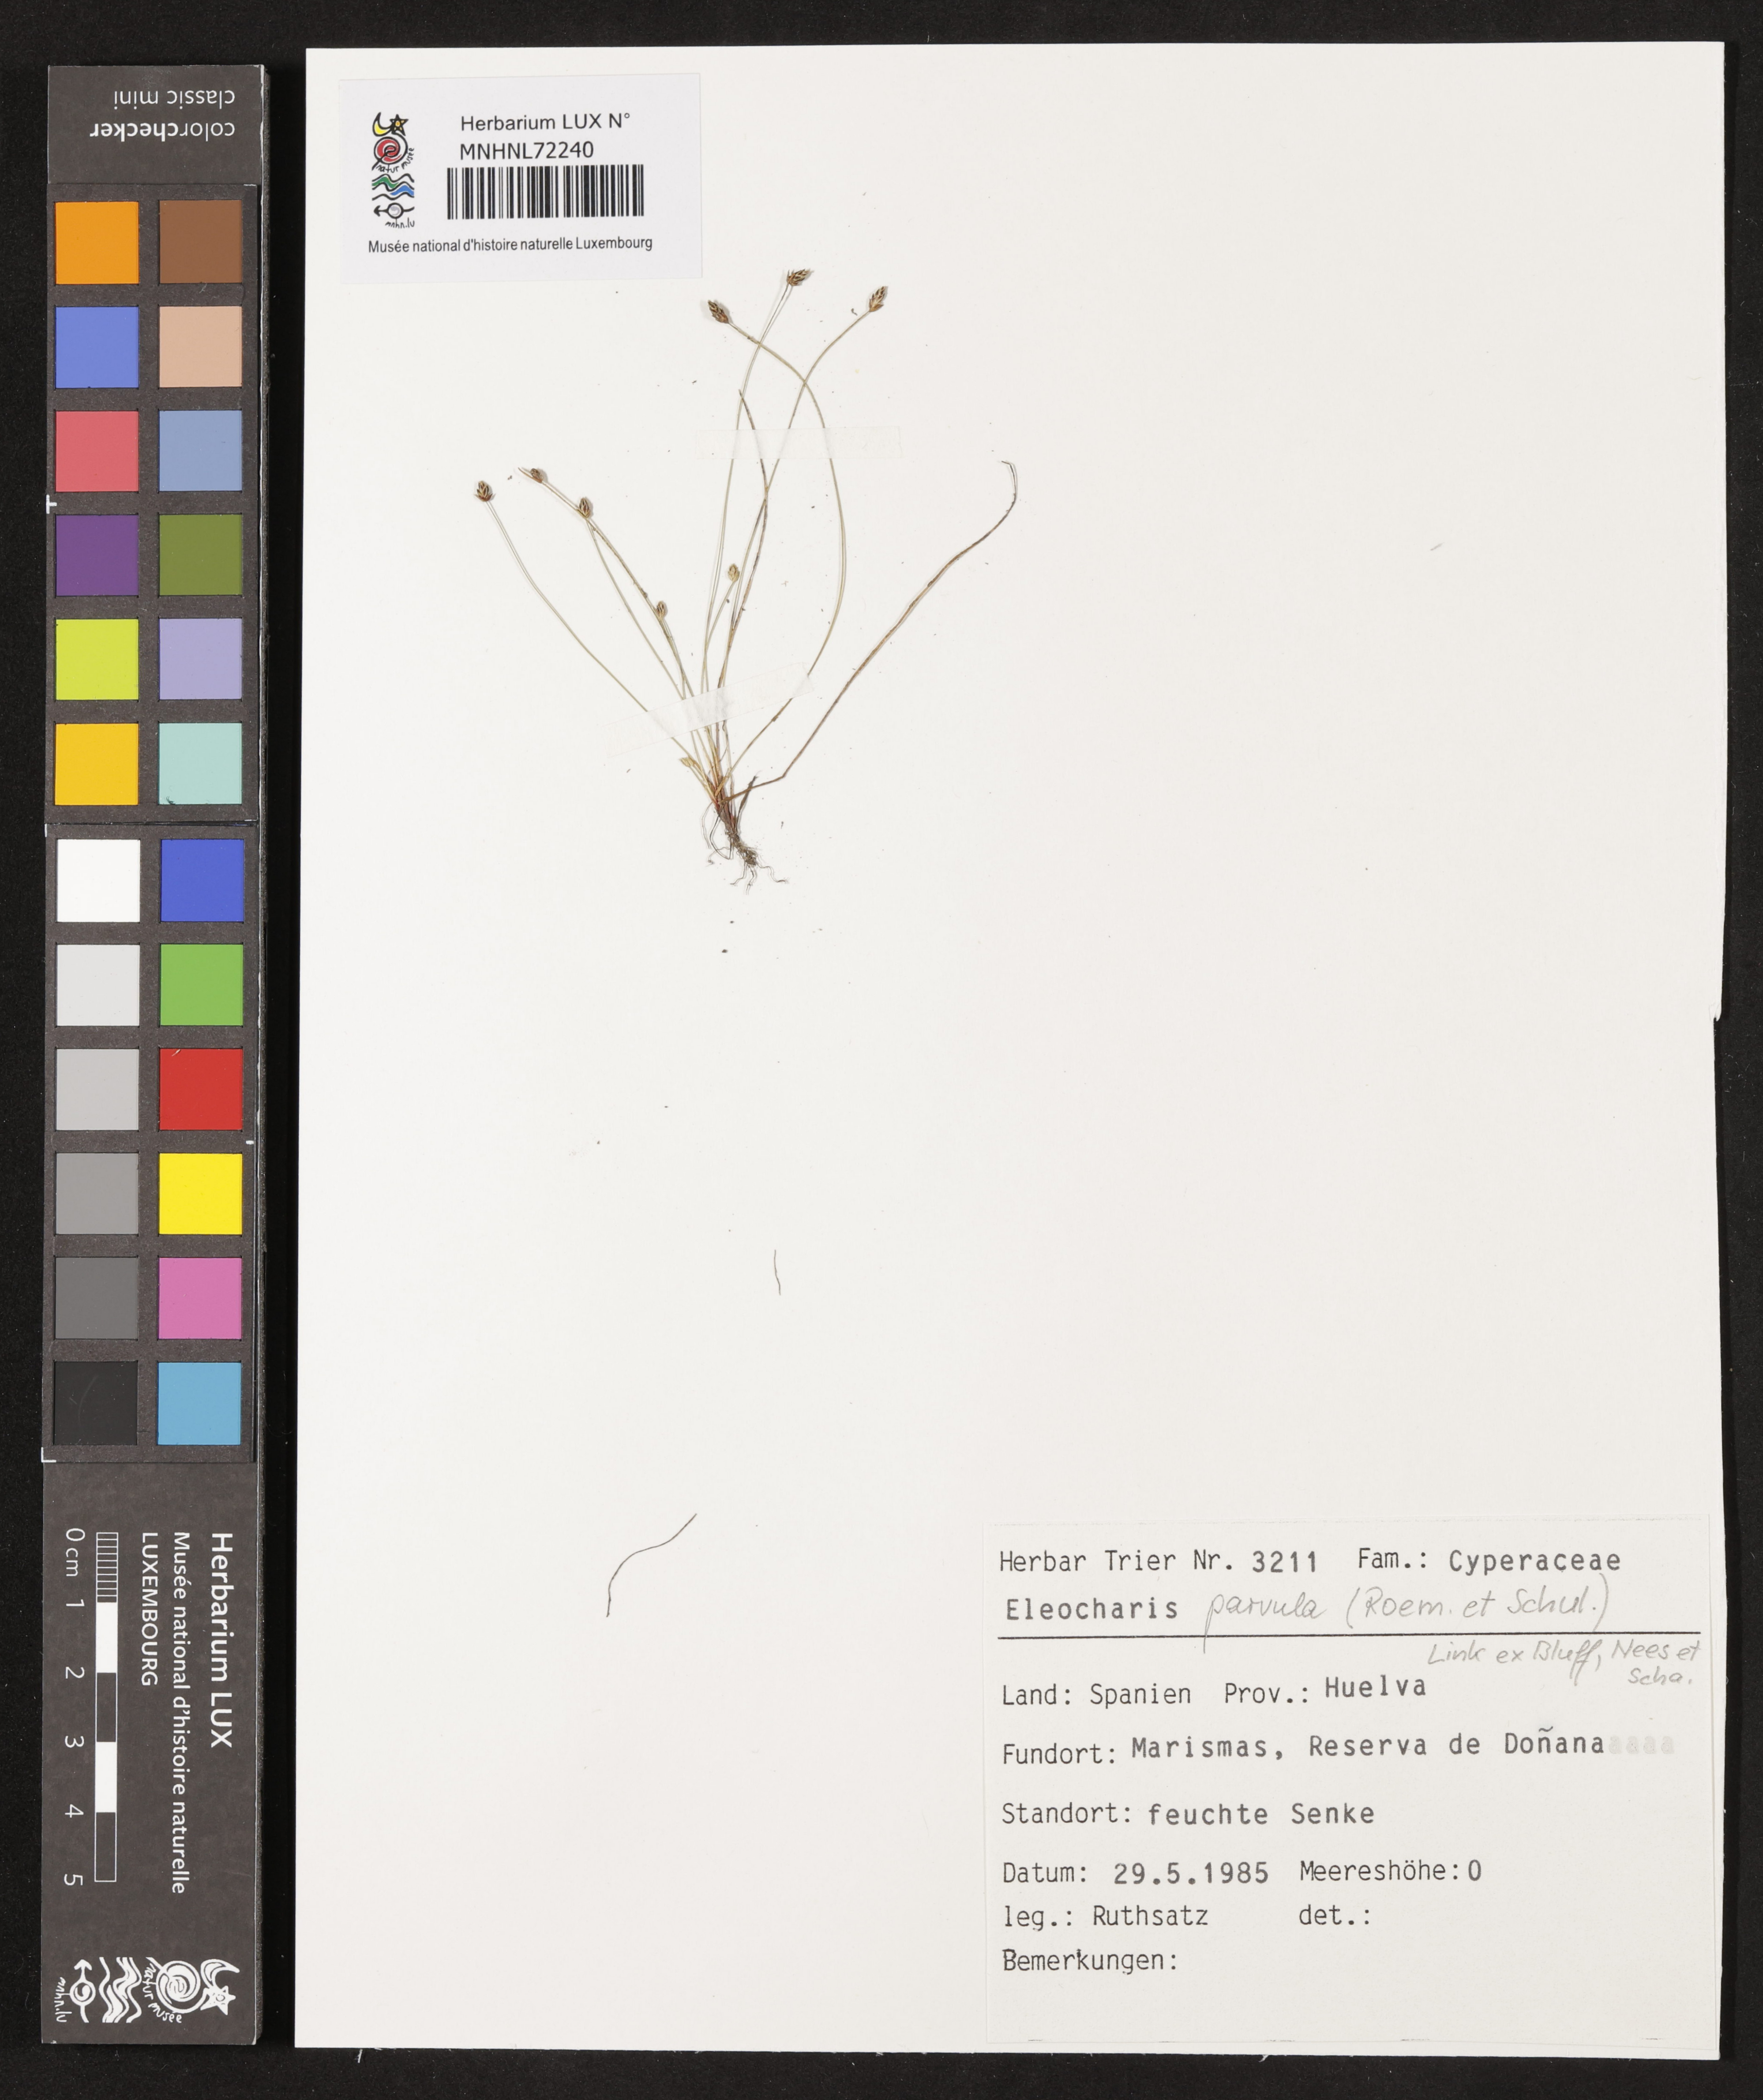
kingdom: Plantae
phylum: Tracheophyta
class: Liliopsida
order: Poales
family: Cyperaceae
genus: Eleocharis
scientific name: Eleocharis parvula
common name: Dwarf spike-rush
